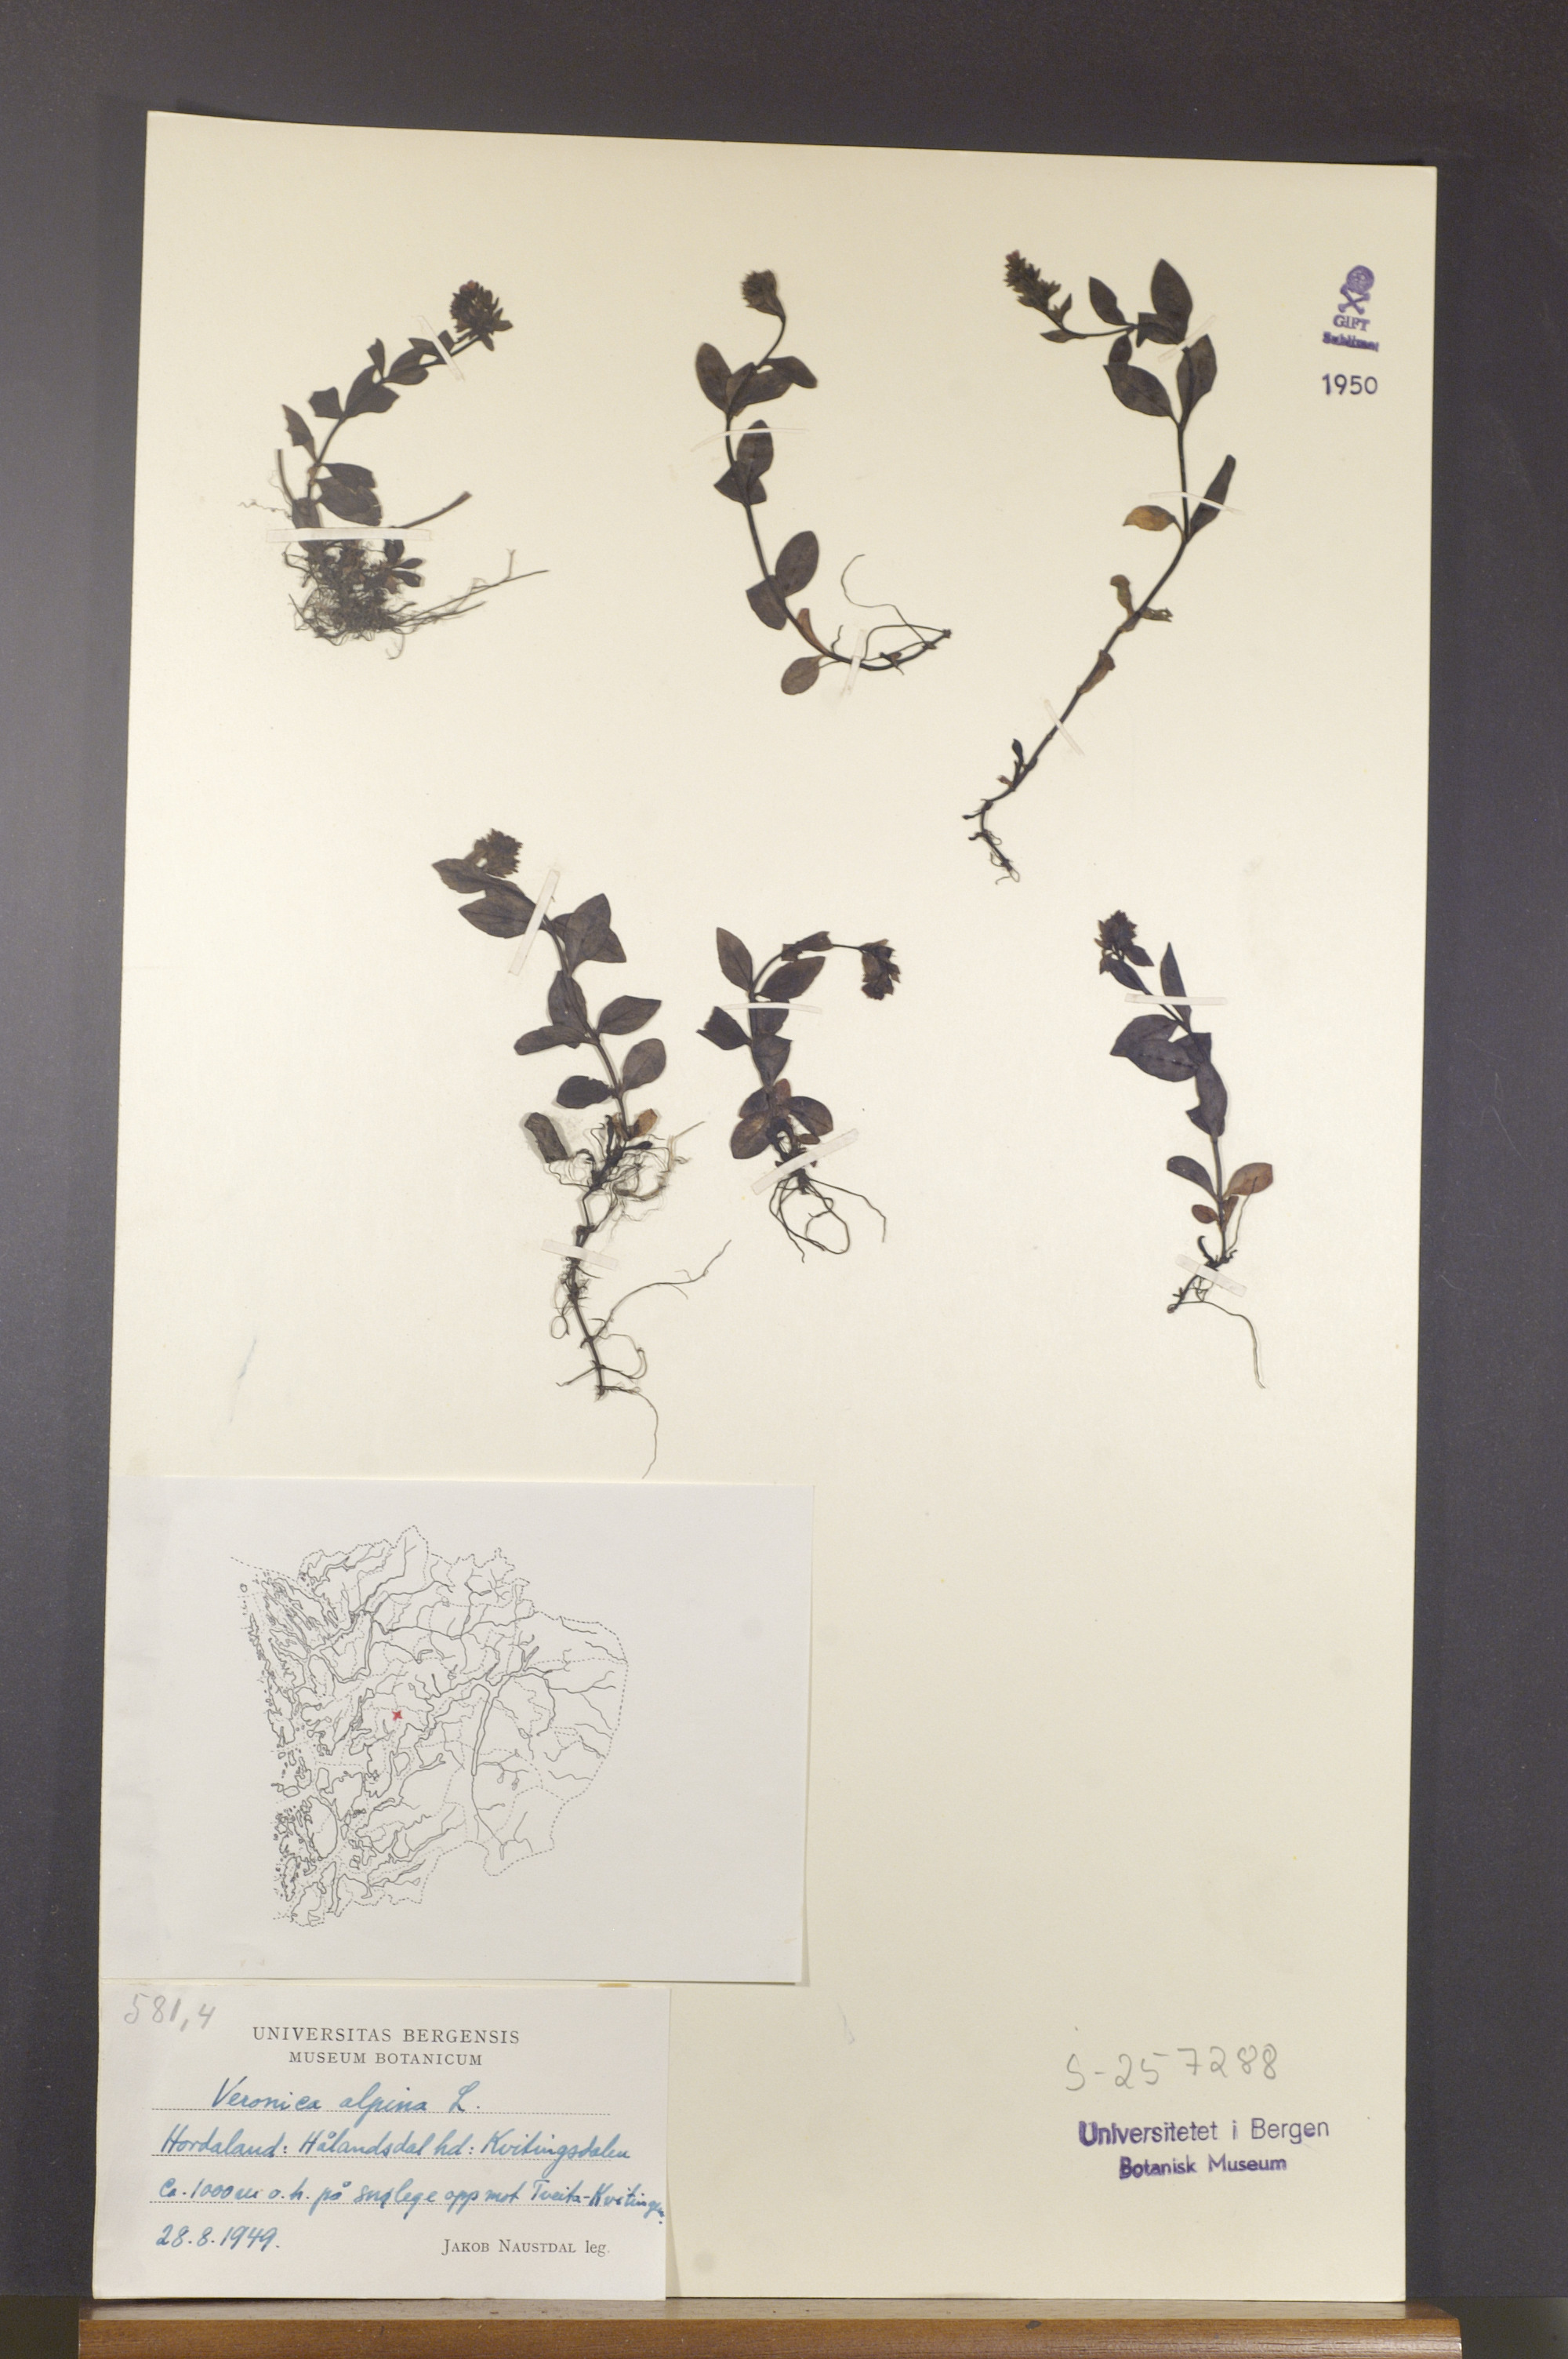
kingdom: Plantae
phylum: Tracheophyta
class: Magnoliopsida
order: Lamiales
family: Plantaginaceae
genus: Veronica
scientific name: Veronica alpina
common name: Alpine speedwell
